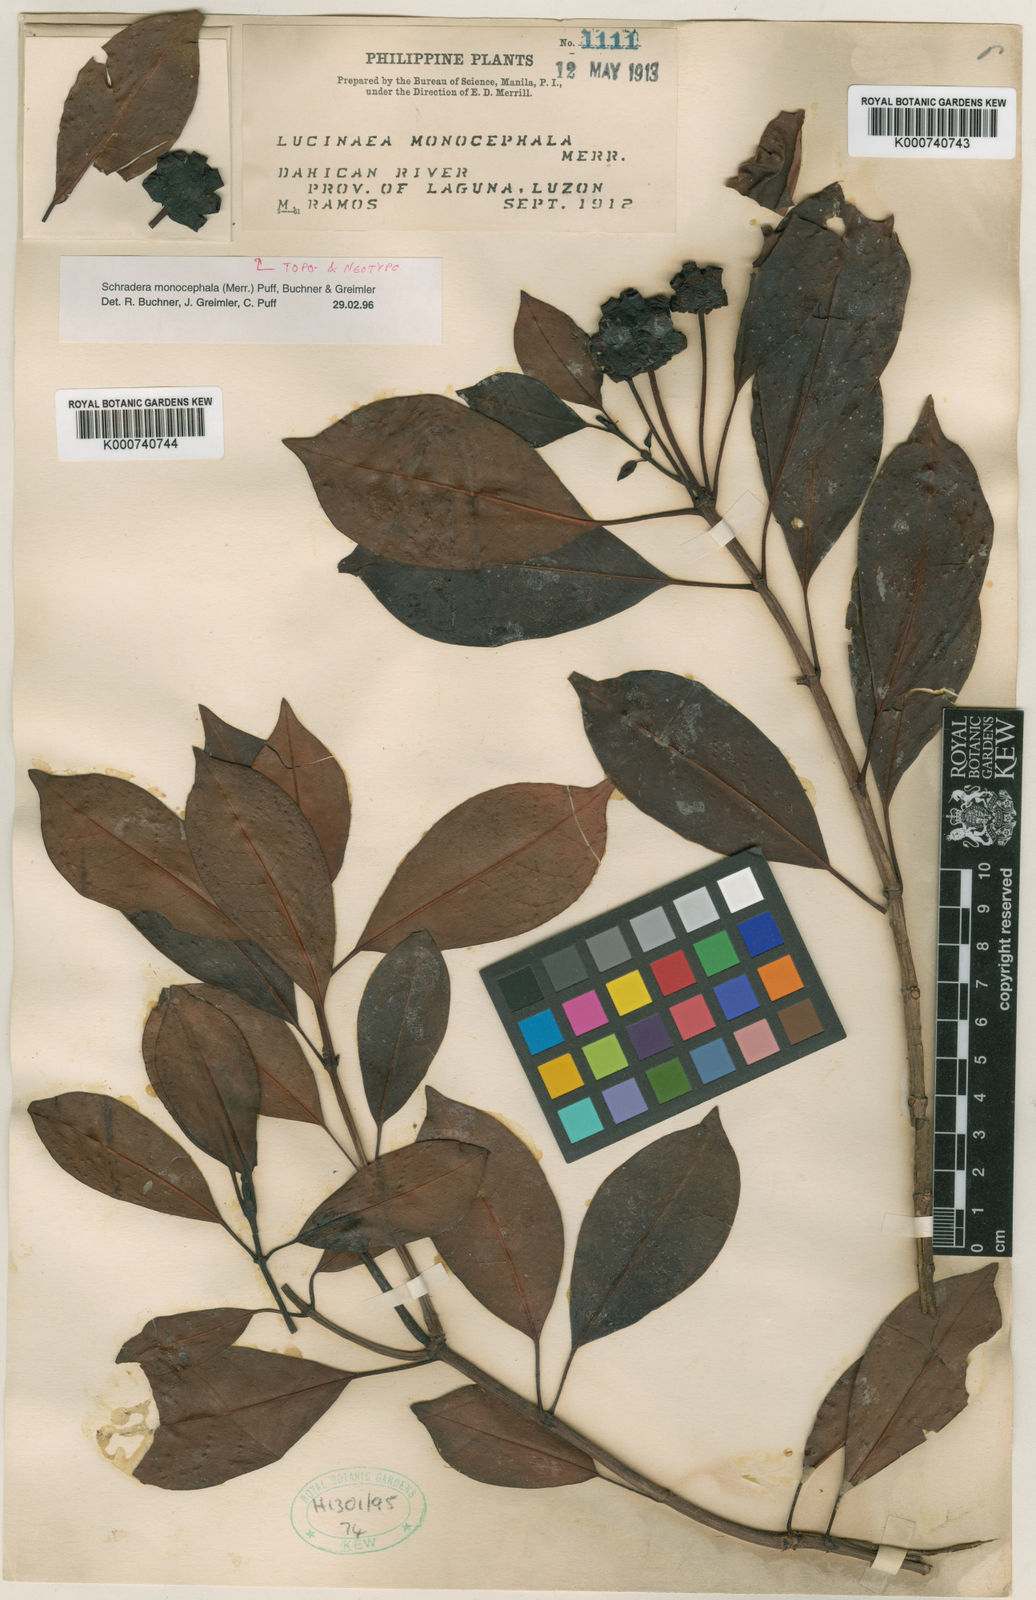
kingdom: Plantae
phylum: Tracheophyta
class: Magnoliopsida
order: Gentianales
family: Rubiaceae
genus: Schradera
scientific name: Schradera monocephala
